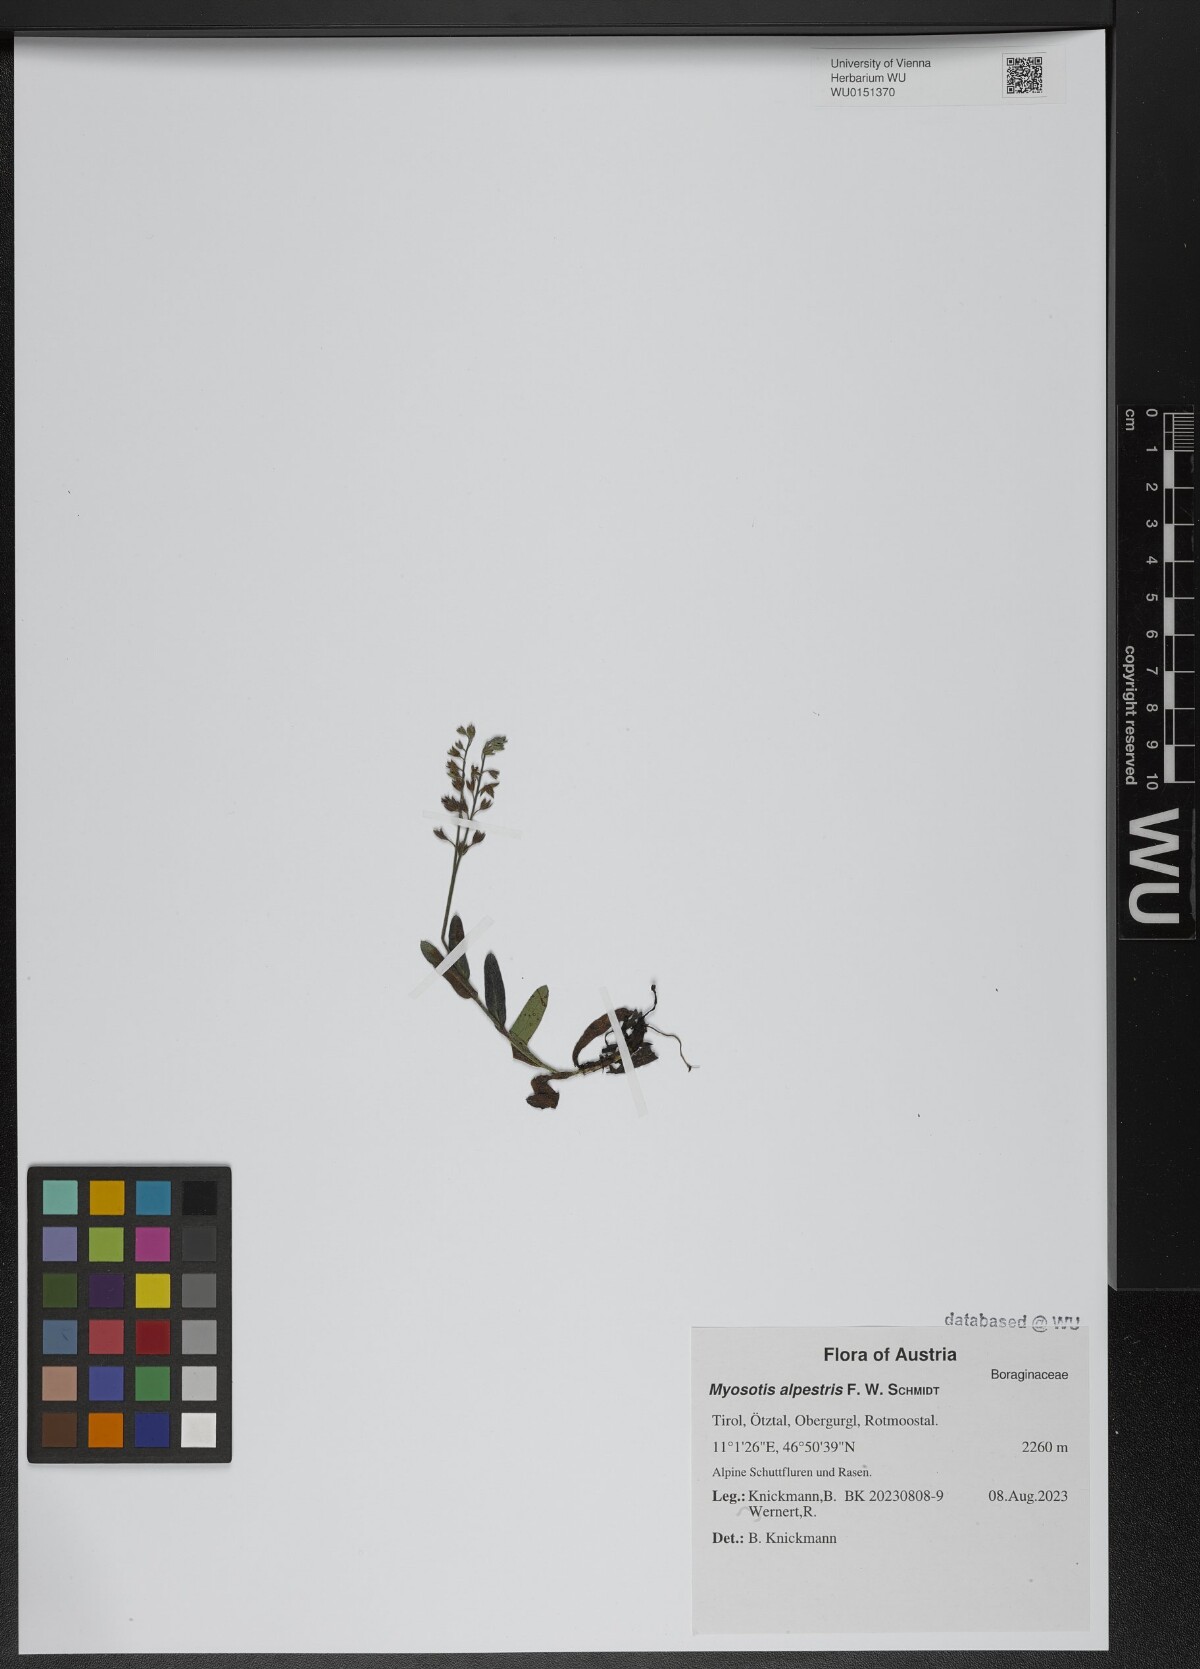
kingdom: Plantae
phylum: Tracheophyta
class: Magnoliopsida
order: Boraginales
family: Boraginaceae
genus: Myosotis
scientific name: Myosotis alpestris
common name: Alpine forget-me-not
